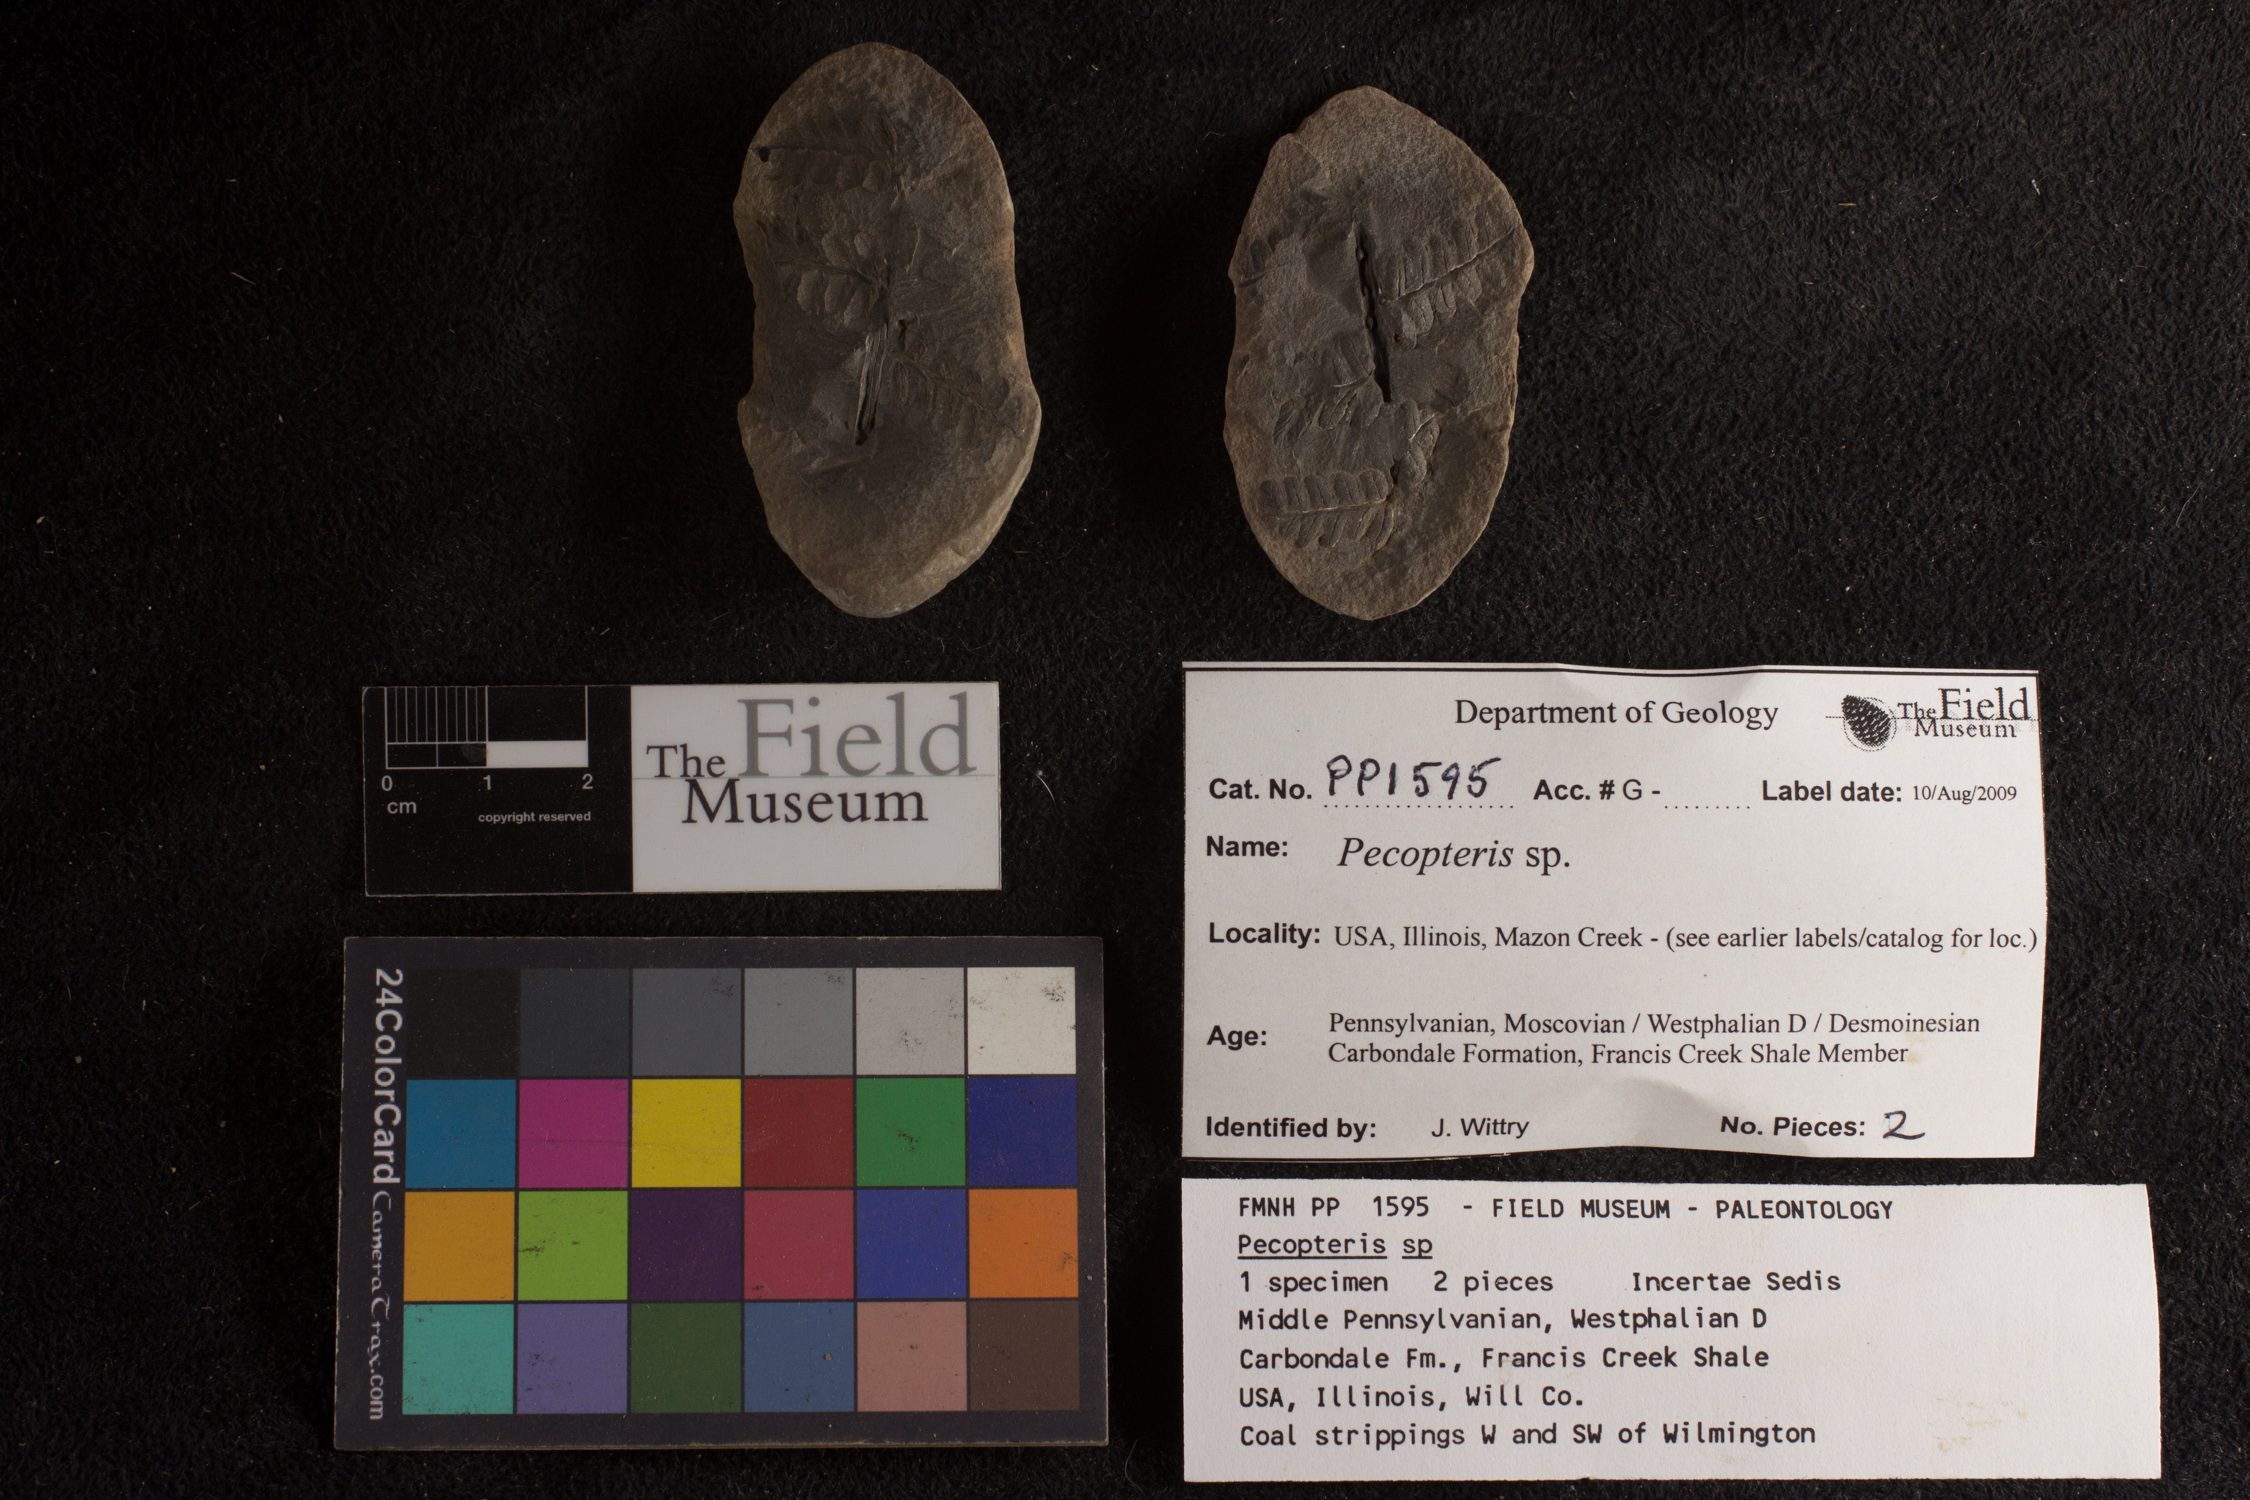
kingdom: Plantae
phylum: Tracheophyta
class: Polypodiopsida
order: Marattiales
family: Asterothecaceae
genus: Pecopteris
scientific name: Pecopteris
